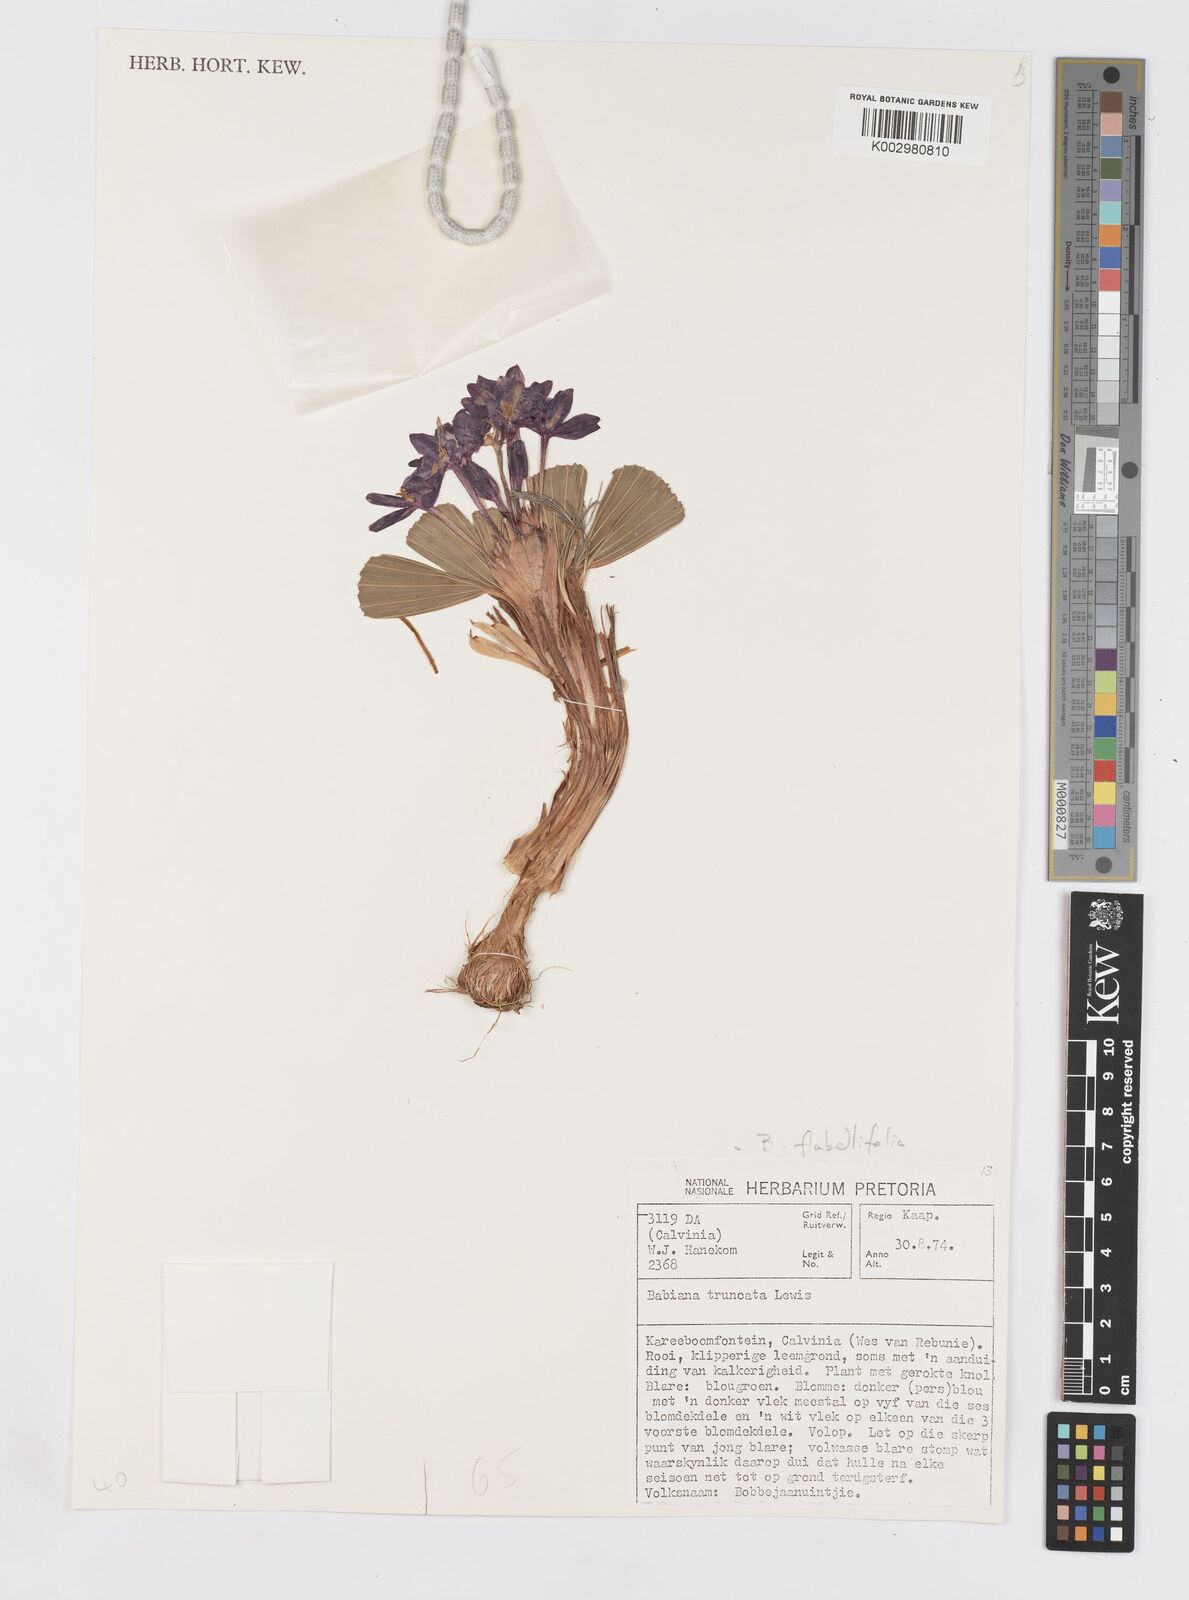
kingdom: Plantae
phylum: Tracheophyta
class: Liliopsida
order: Asparagales
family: Iridaceae
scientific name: Iridaceae
